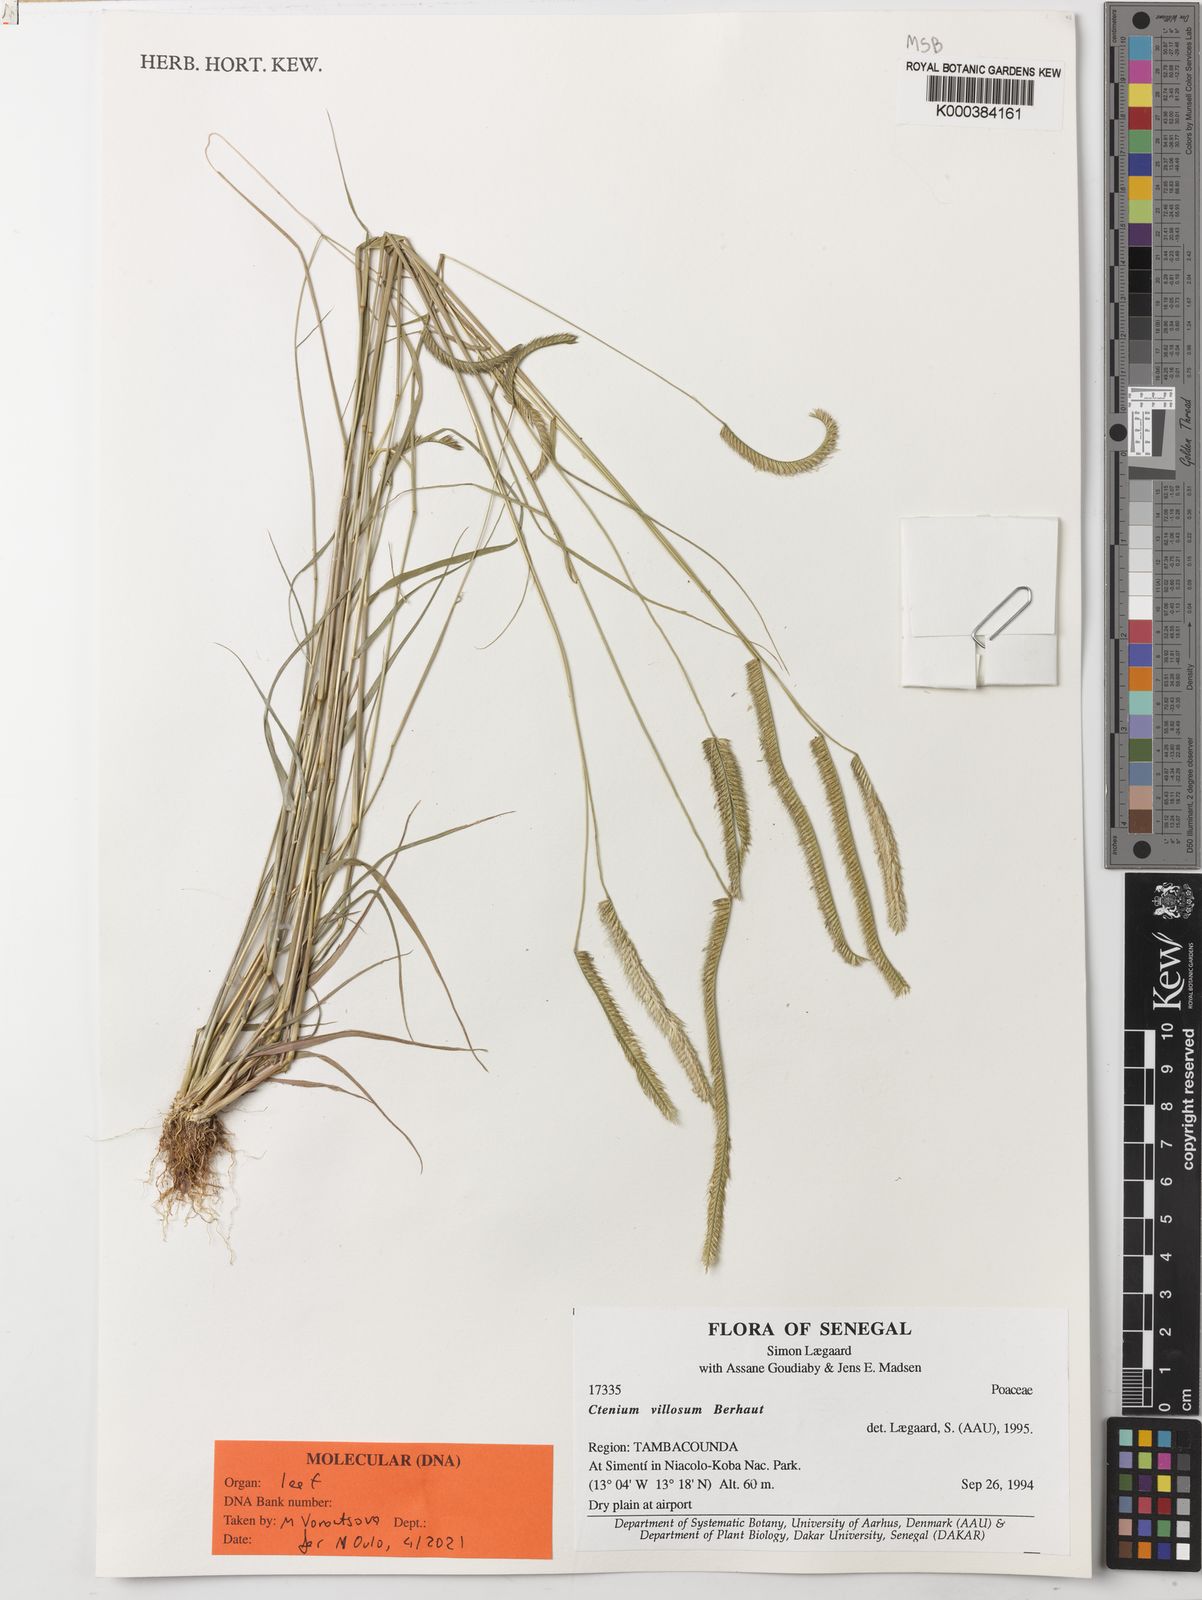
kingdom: Plantae
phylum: Tracheophyta
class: Liliopsida
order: Poales
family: Poaceae
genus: Ctenium
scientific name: Ctenium villosum
